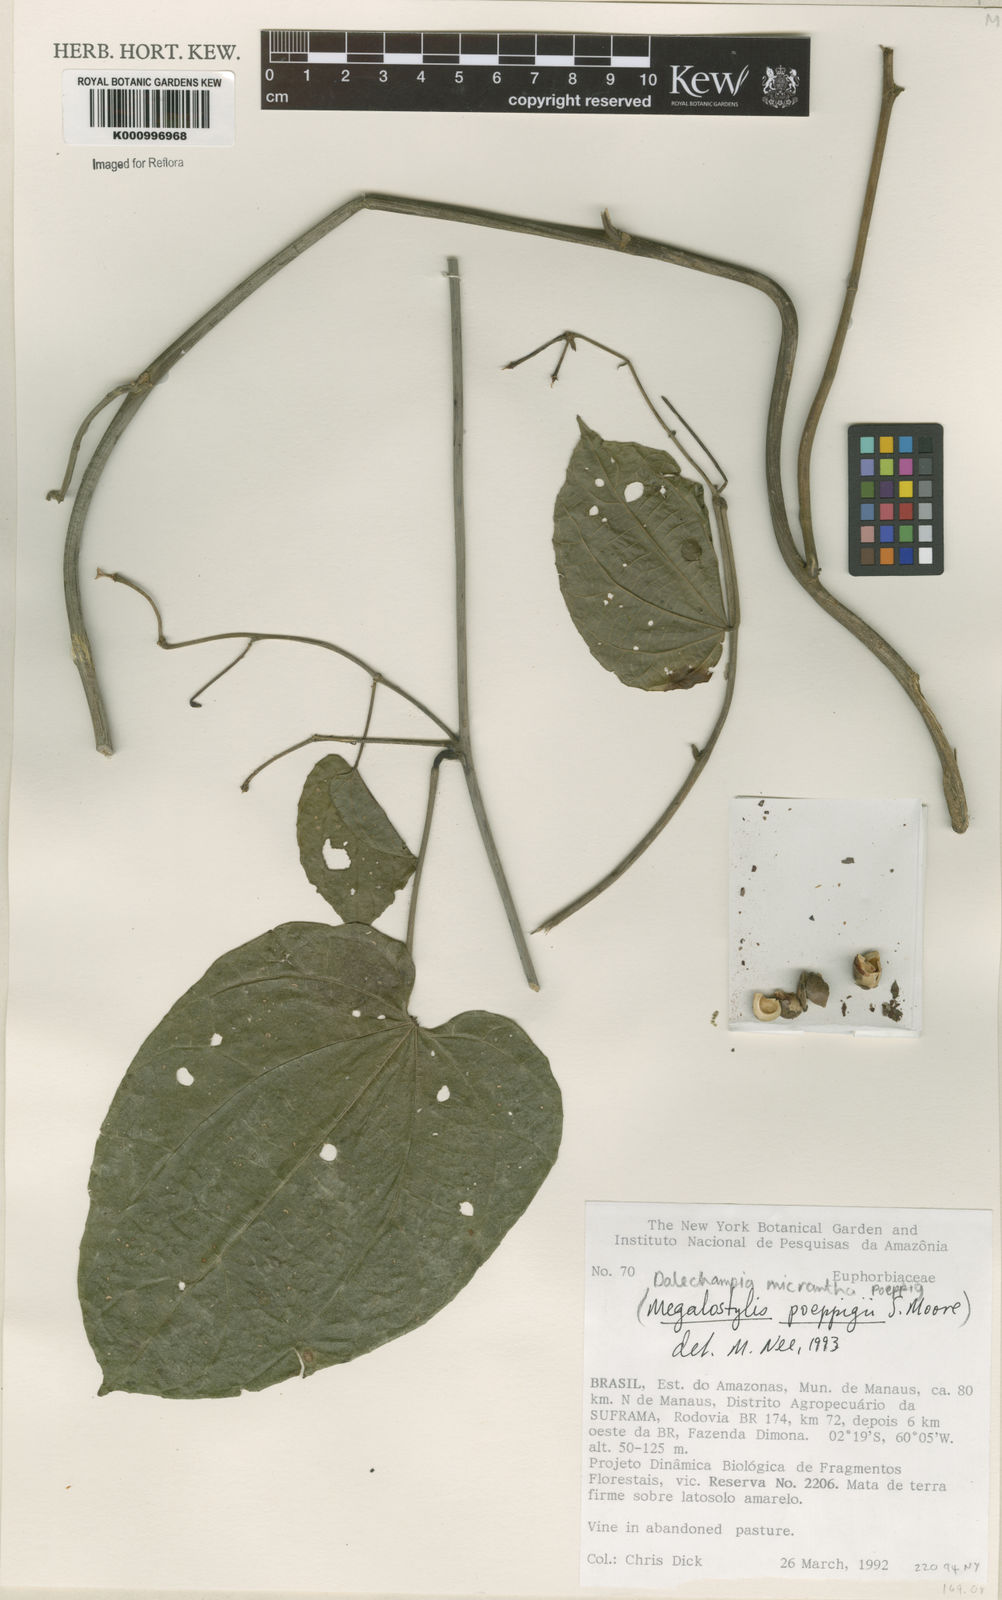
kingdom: Plantae
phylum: Tracheophyta
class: Magnoliopsida
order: Malpighiales
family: Euphorbiaceae
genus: Dalechampia
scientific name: Dalechampia micrantha
